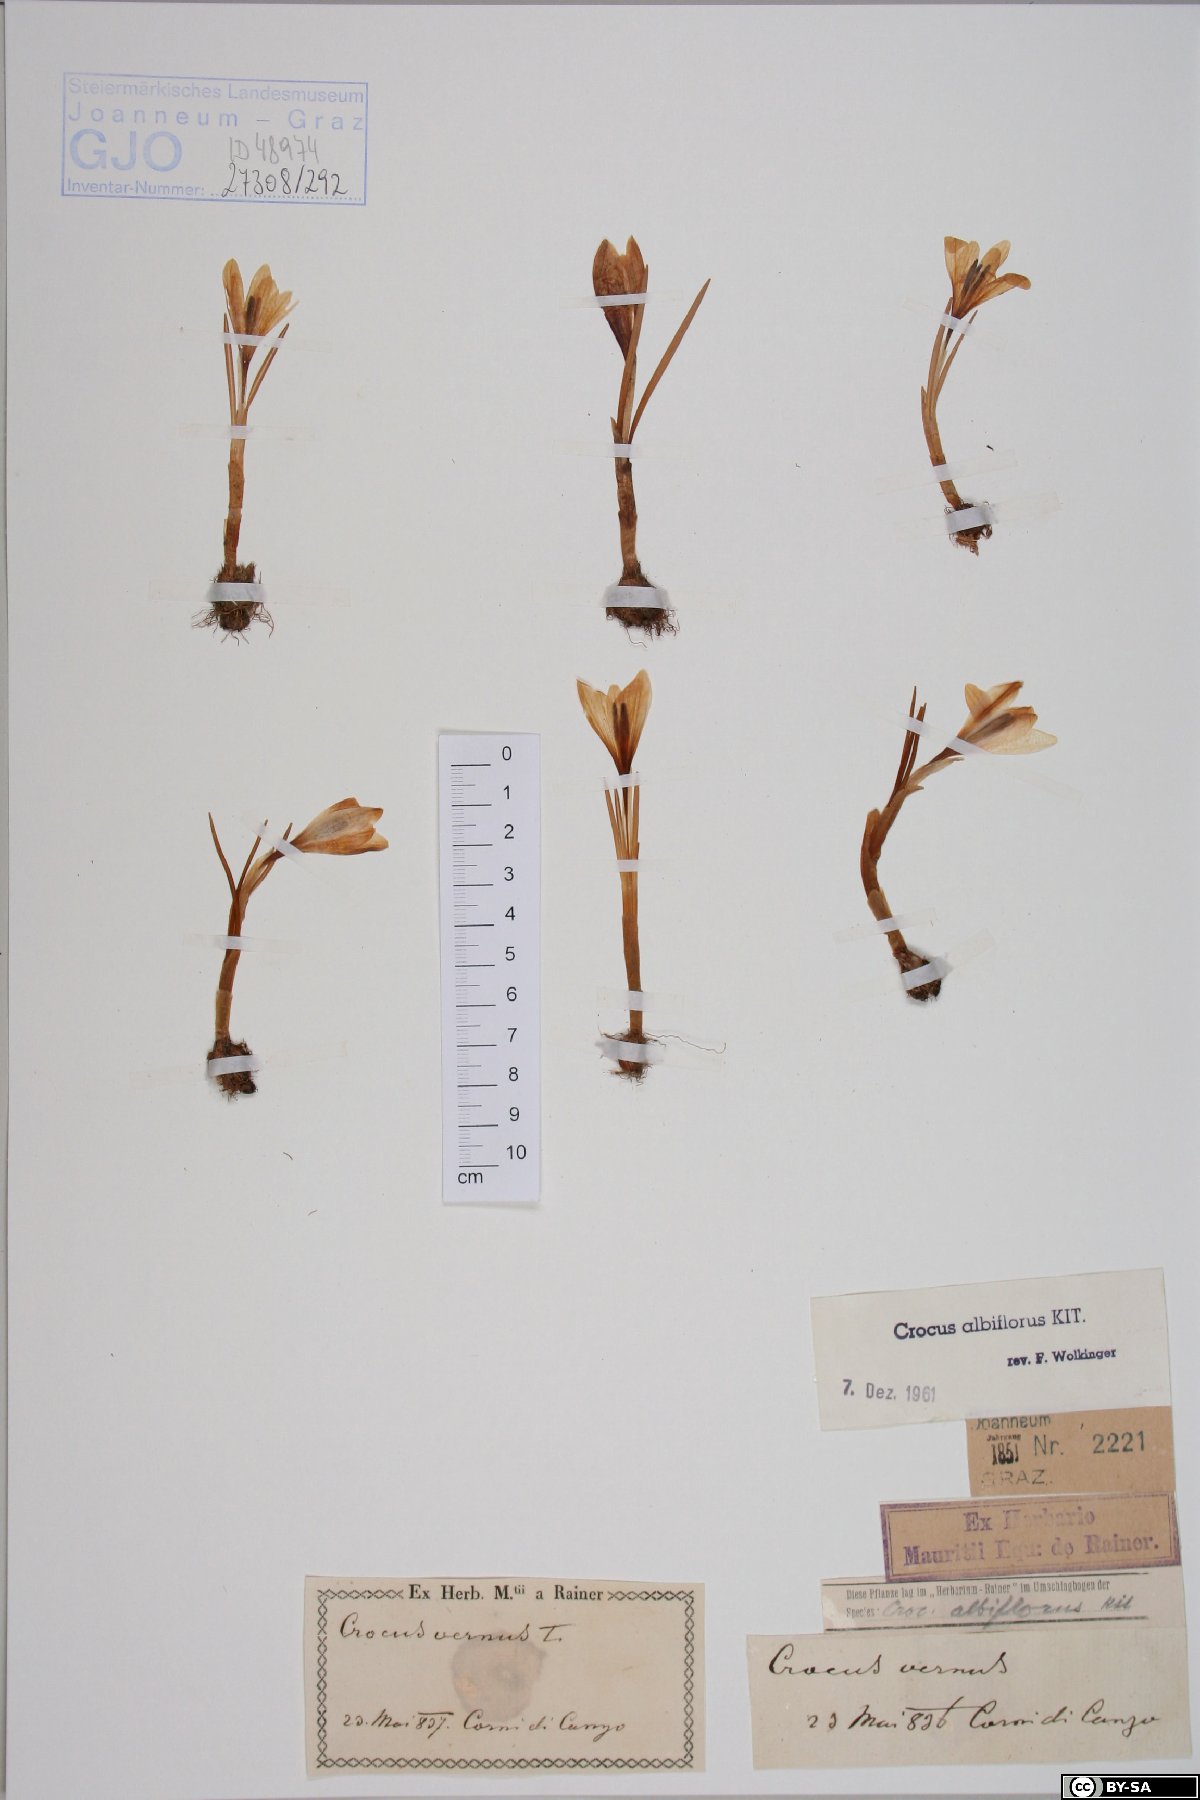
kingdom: Plantae
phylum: Tracheophyta
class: Liliopsida
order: Asparagales
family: Iridaceae
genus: Crocus
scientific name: Crocus vernus
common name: Spring crocus
